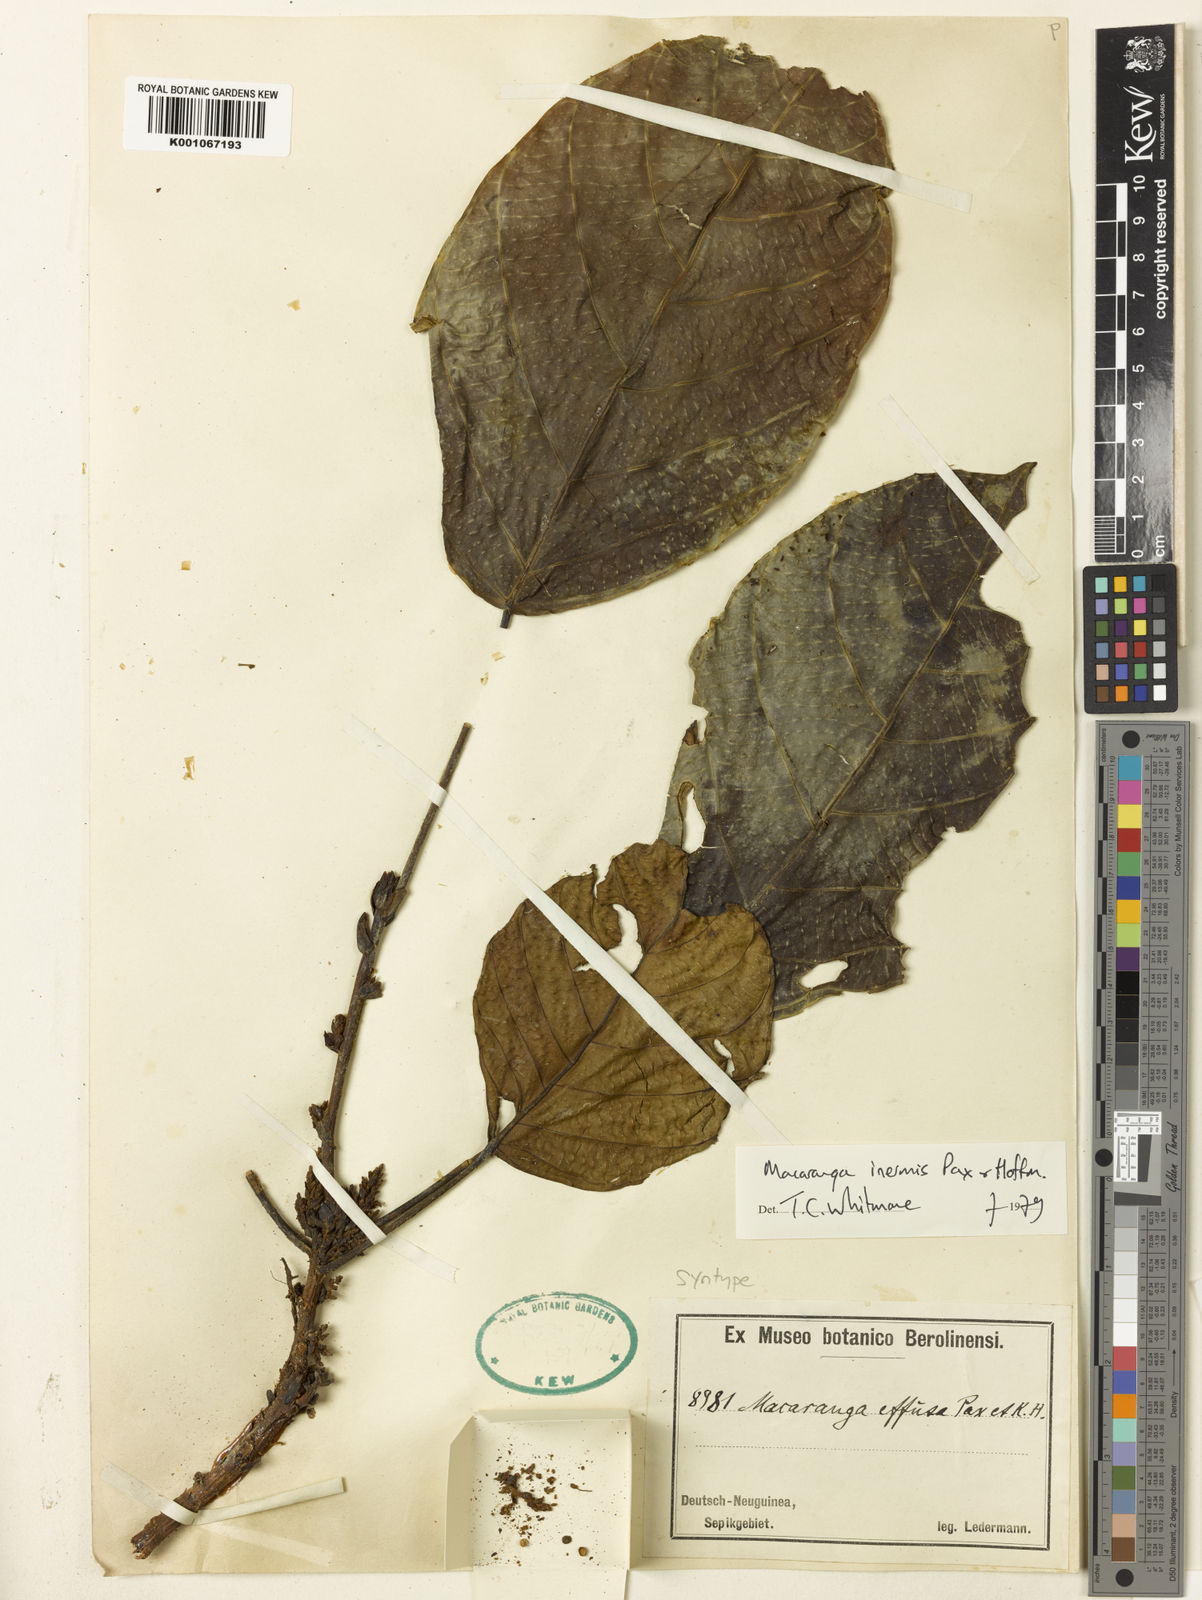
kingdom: Plantae
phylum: Tracheophyta
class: Magnoliopsida
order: Malpighiales
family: Euphorbiaceae
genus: Macaranga
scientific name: Macaranga inermis
